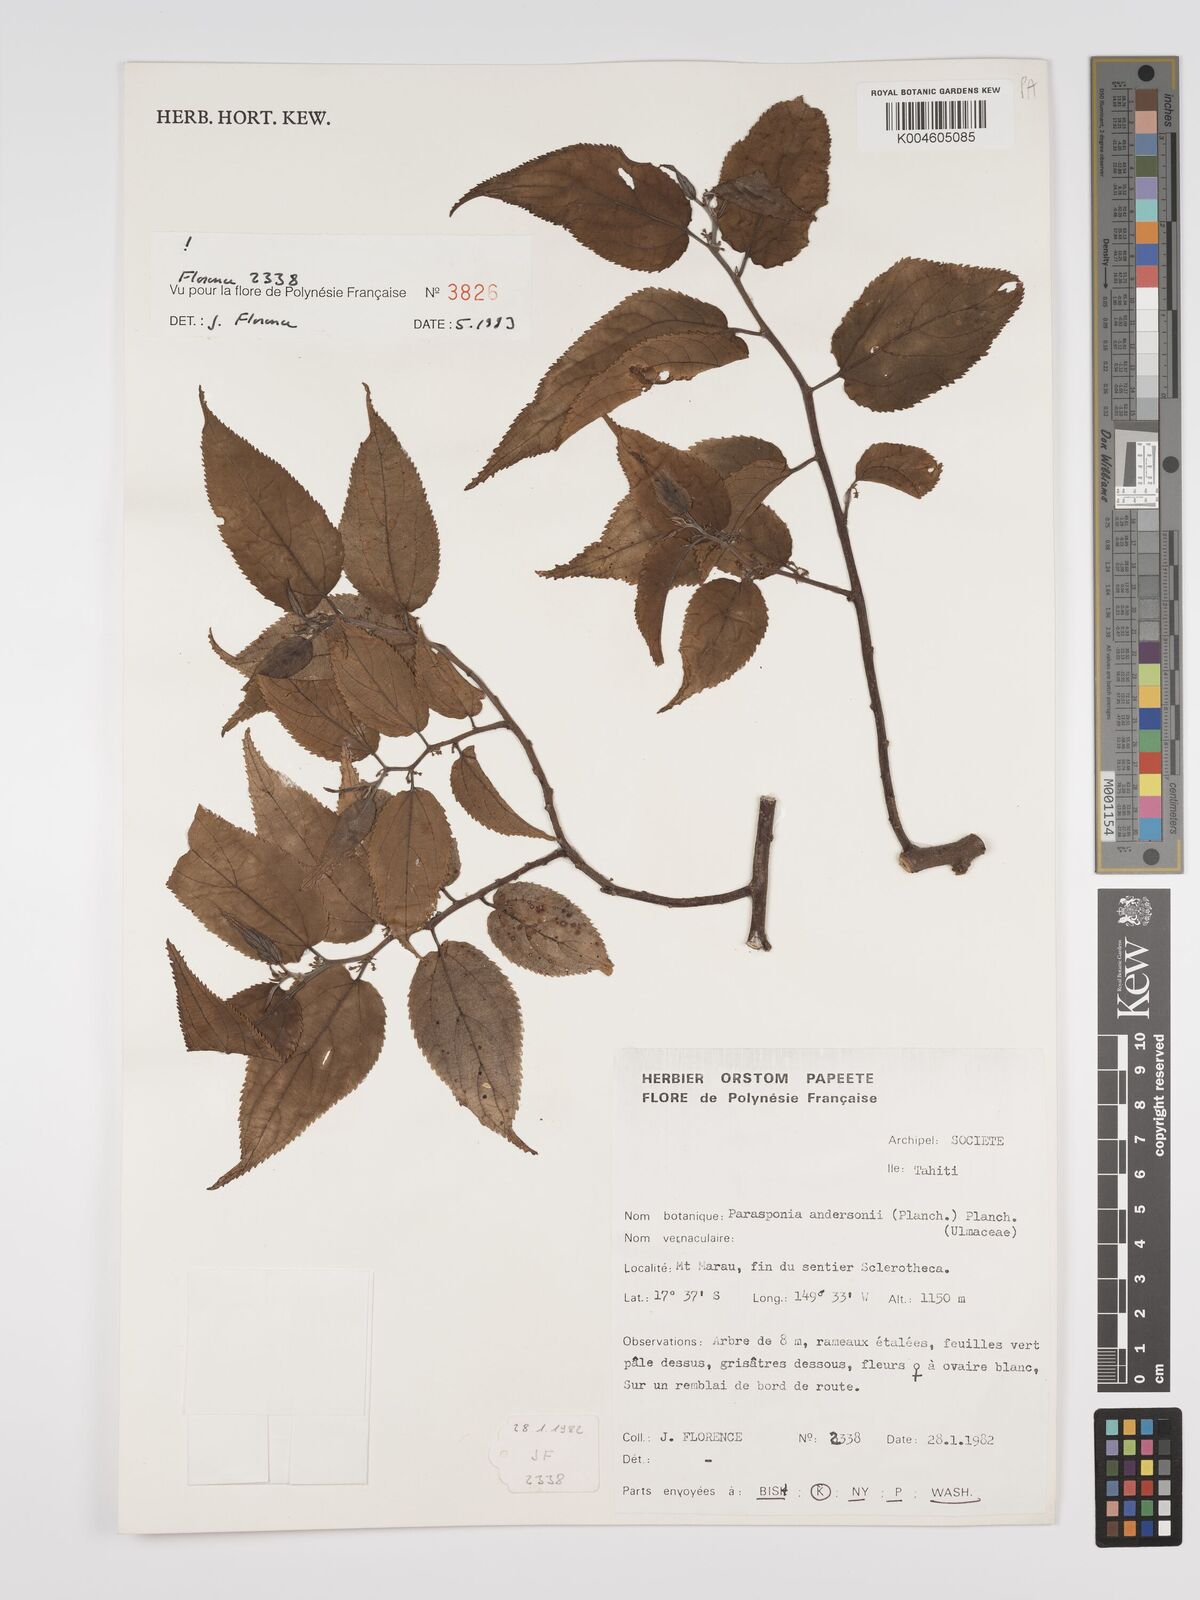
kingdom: Plantae
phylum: Tracheophyta
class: Magnoliopsida
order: Rosales
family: Cannabaceae
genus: Trema
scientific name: Trema andersonii
